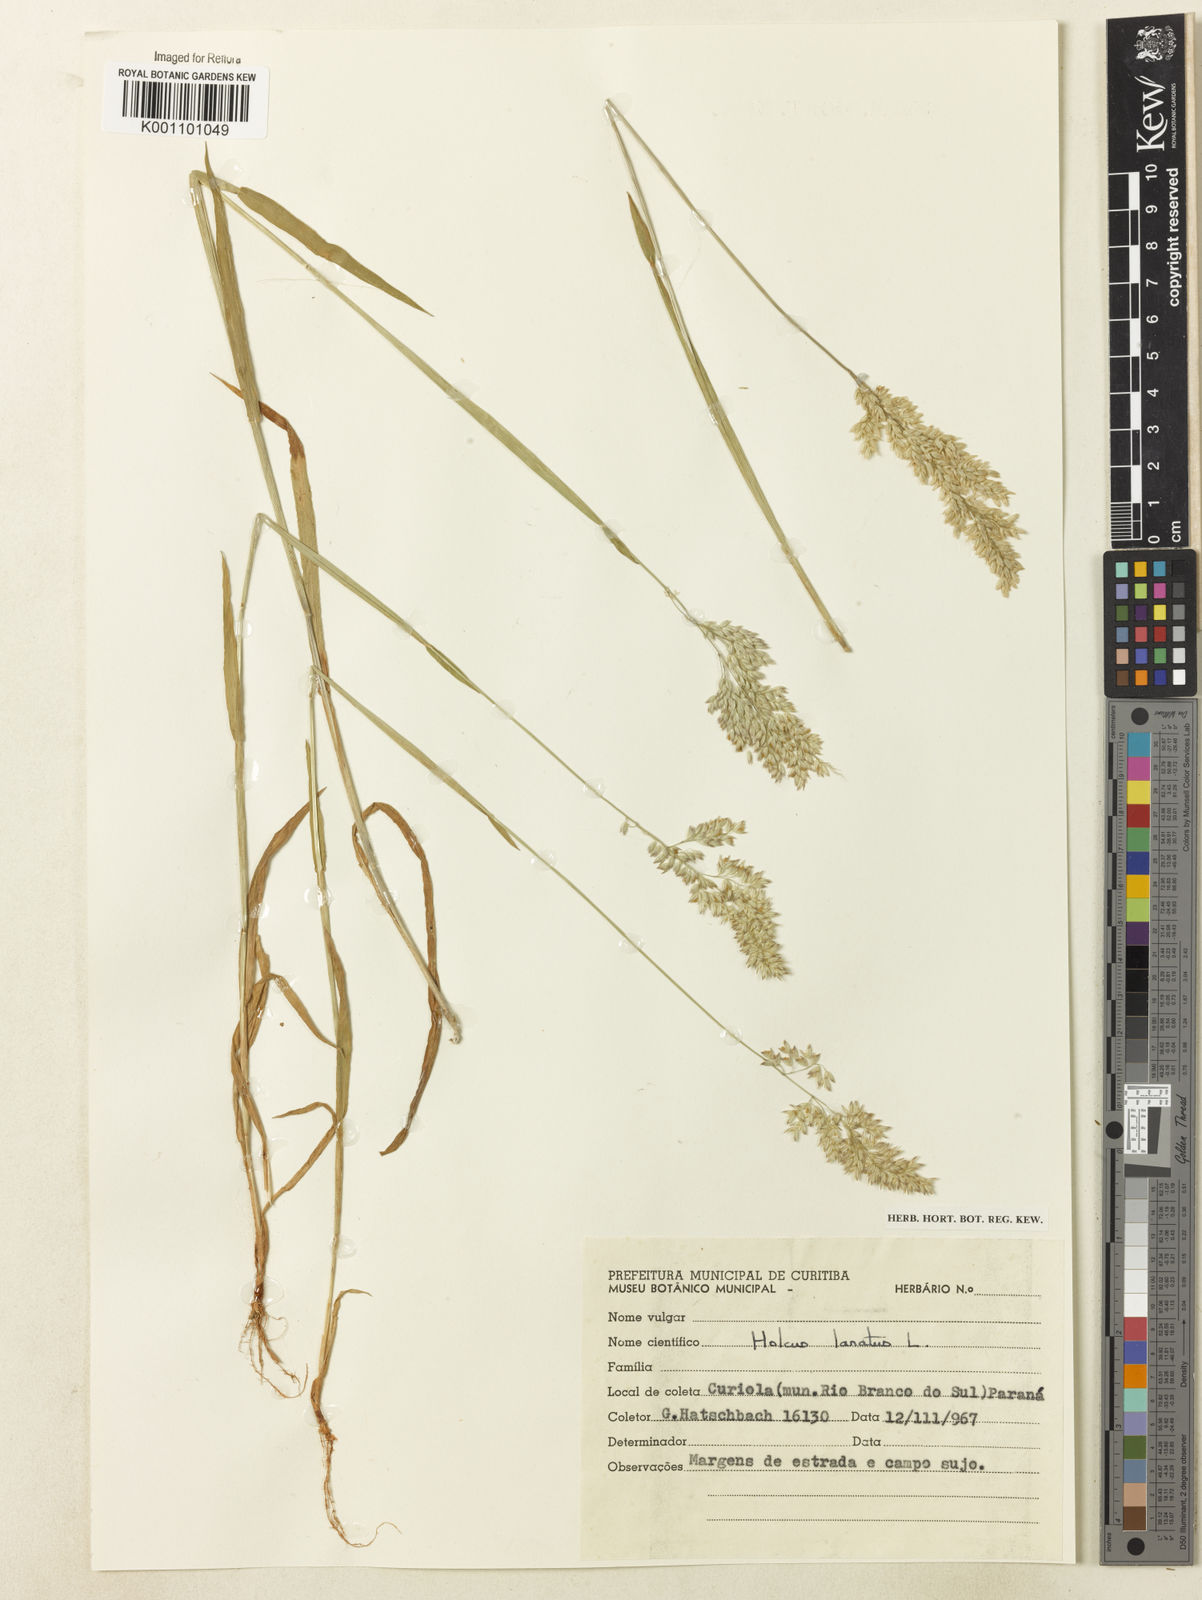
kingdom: Plantae
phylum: Tracheophyta
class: Liliopsida
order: Poales
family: Poaceae
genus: Holcus
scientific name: Holcus lanatus
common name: Yorkshire-fog
